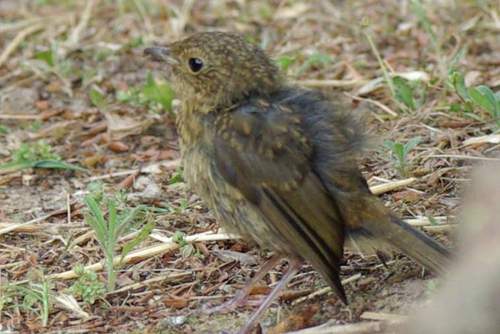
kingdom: Animalia
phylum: Chordata
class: Aves
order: Passeriformes
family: Muscicapidae
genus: Erithacus
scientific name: Erithacus rubecula
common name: European robin
